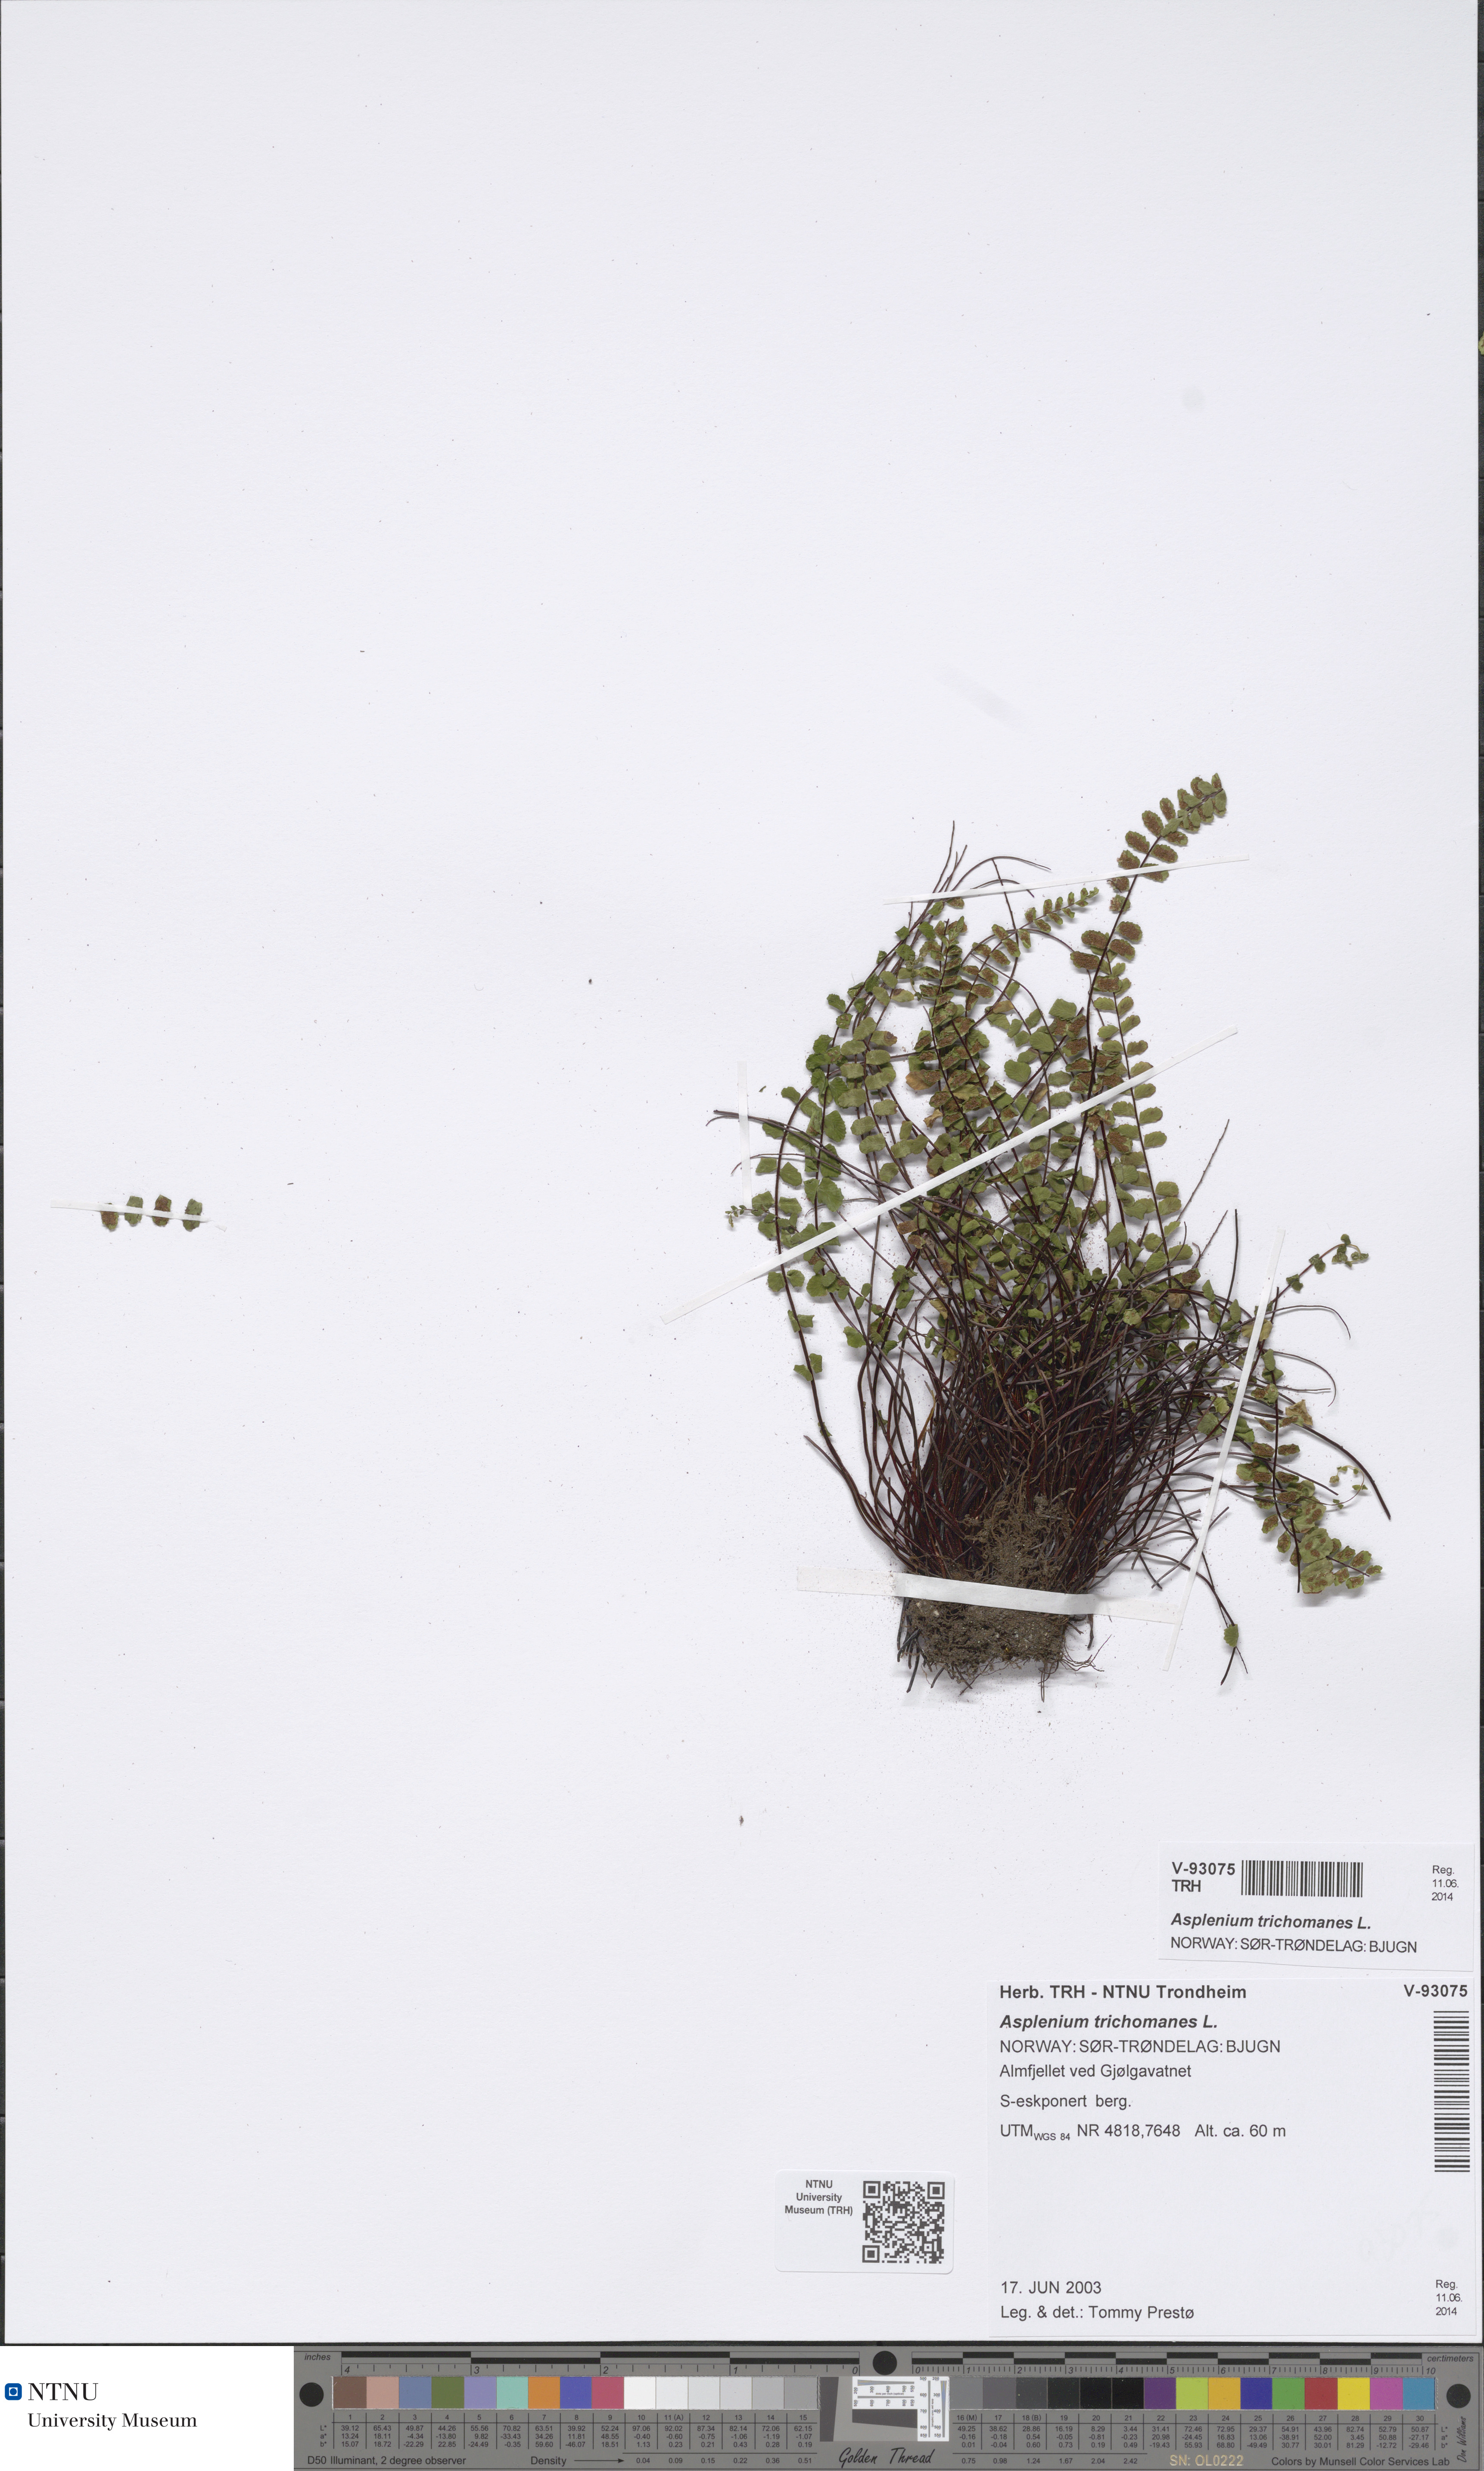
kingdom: Plantae
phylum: Tracheophyta
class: Polypodiopsida
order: Polypodiales
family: Aspleniaceae
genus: Asplenium
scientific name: Asplenium trichomanes
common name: Maidenhair spleenwort
